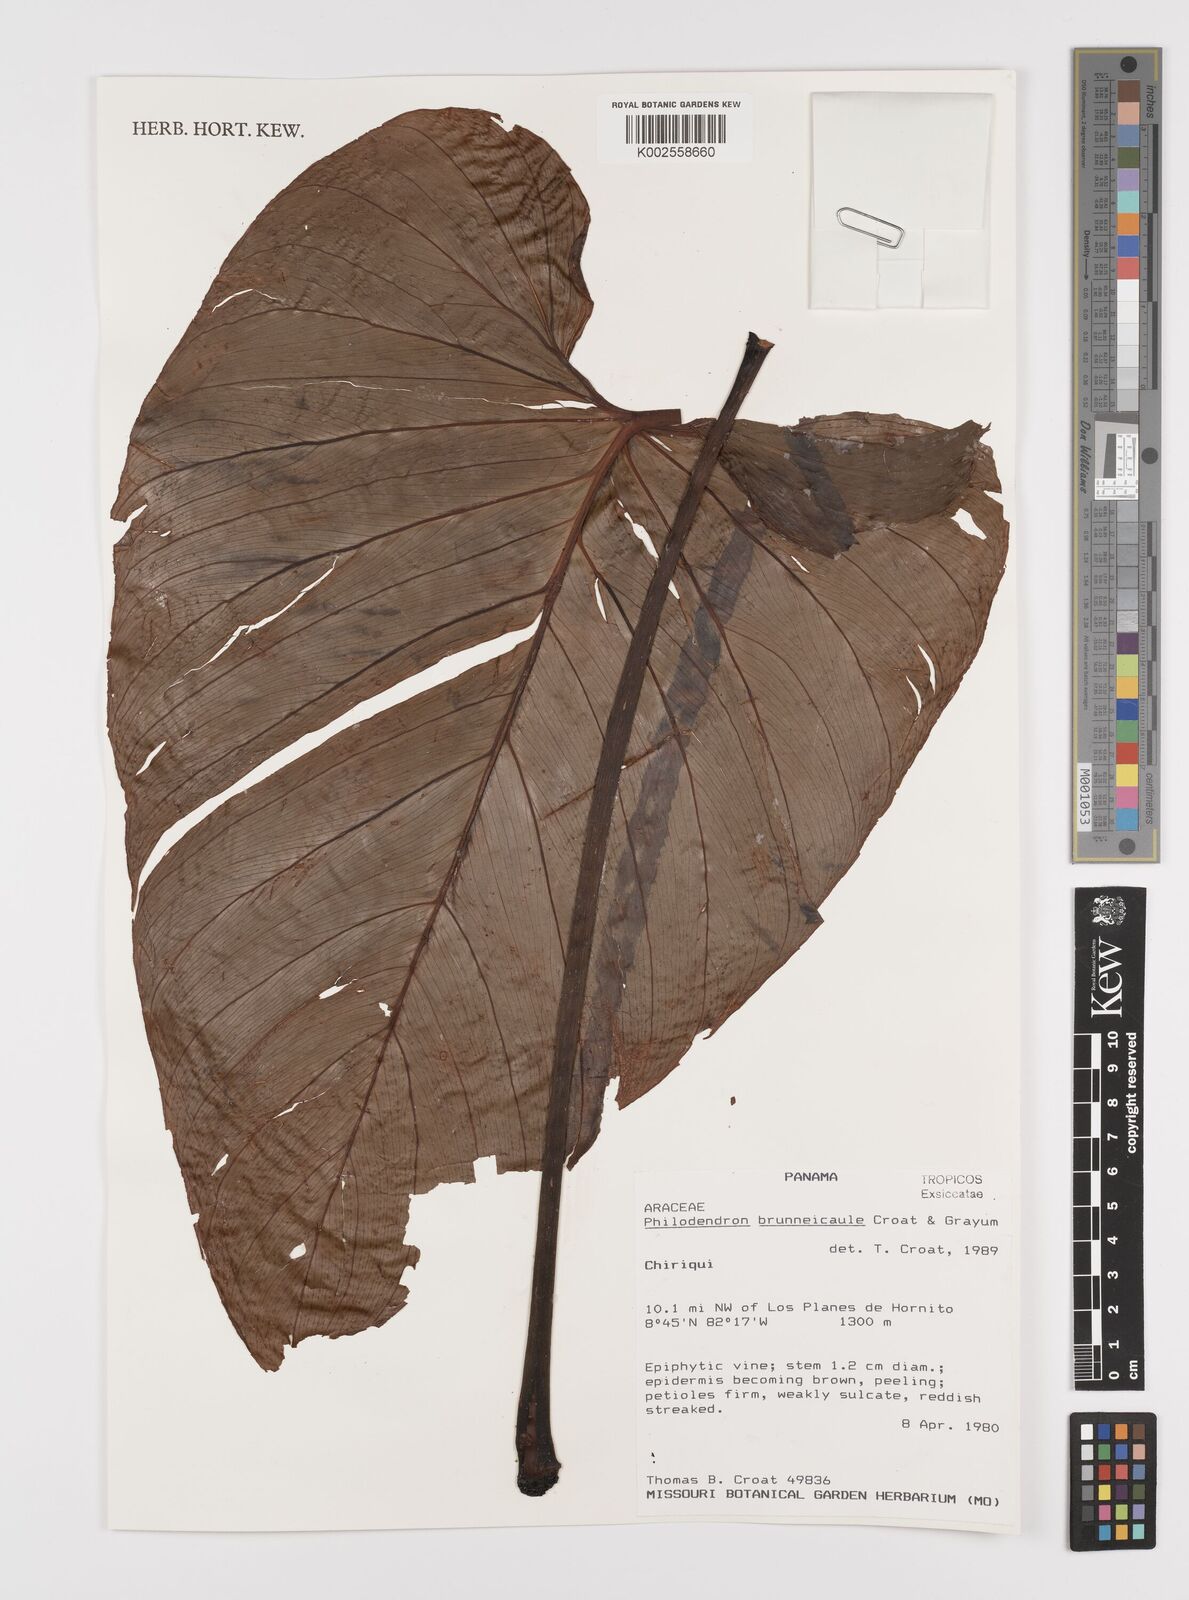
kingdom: Plantae
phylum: Tracheophyta
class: Liliopsida
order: Alismatales
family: Araceae
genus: Philodendron
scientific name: Philodendron brunneicaule
